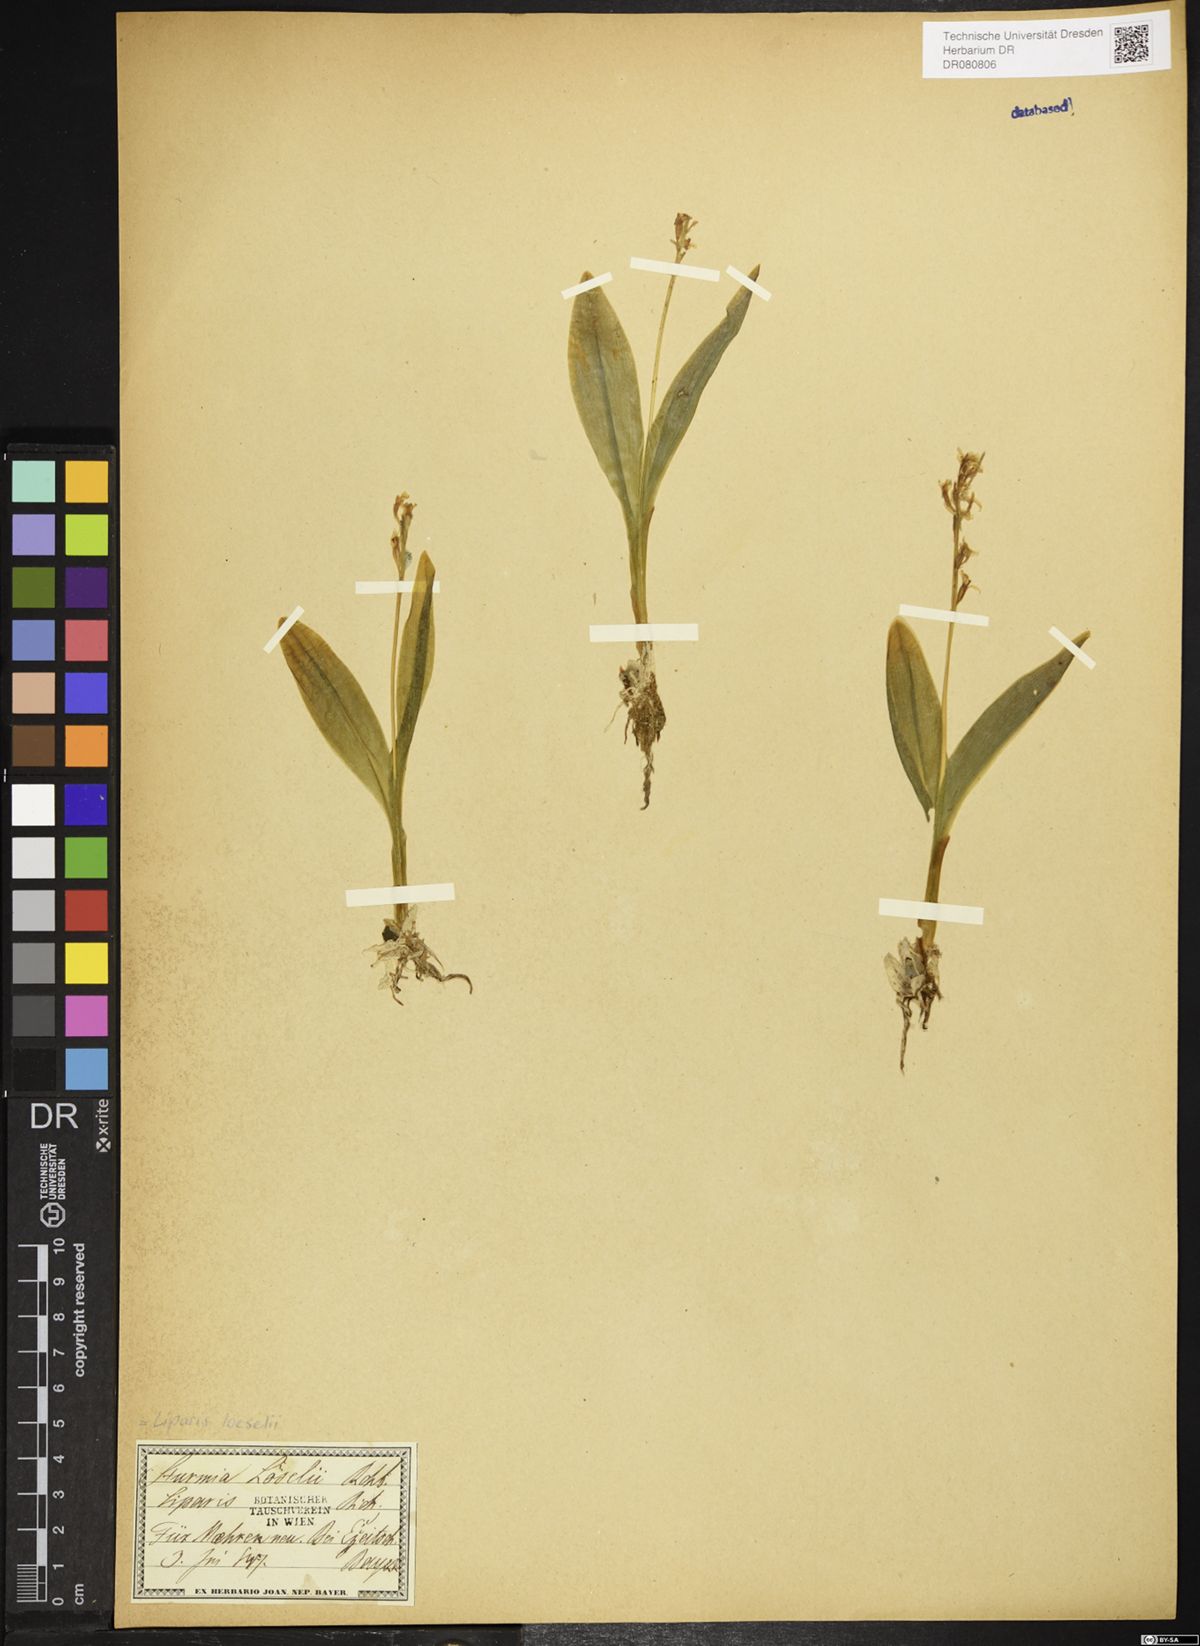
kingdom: Animalia
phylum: Arthropoda
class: Insecta
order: Coleoptera
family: Curculionidae
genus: Liparis
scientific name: Liparis loeselii
